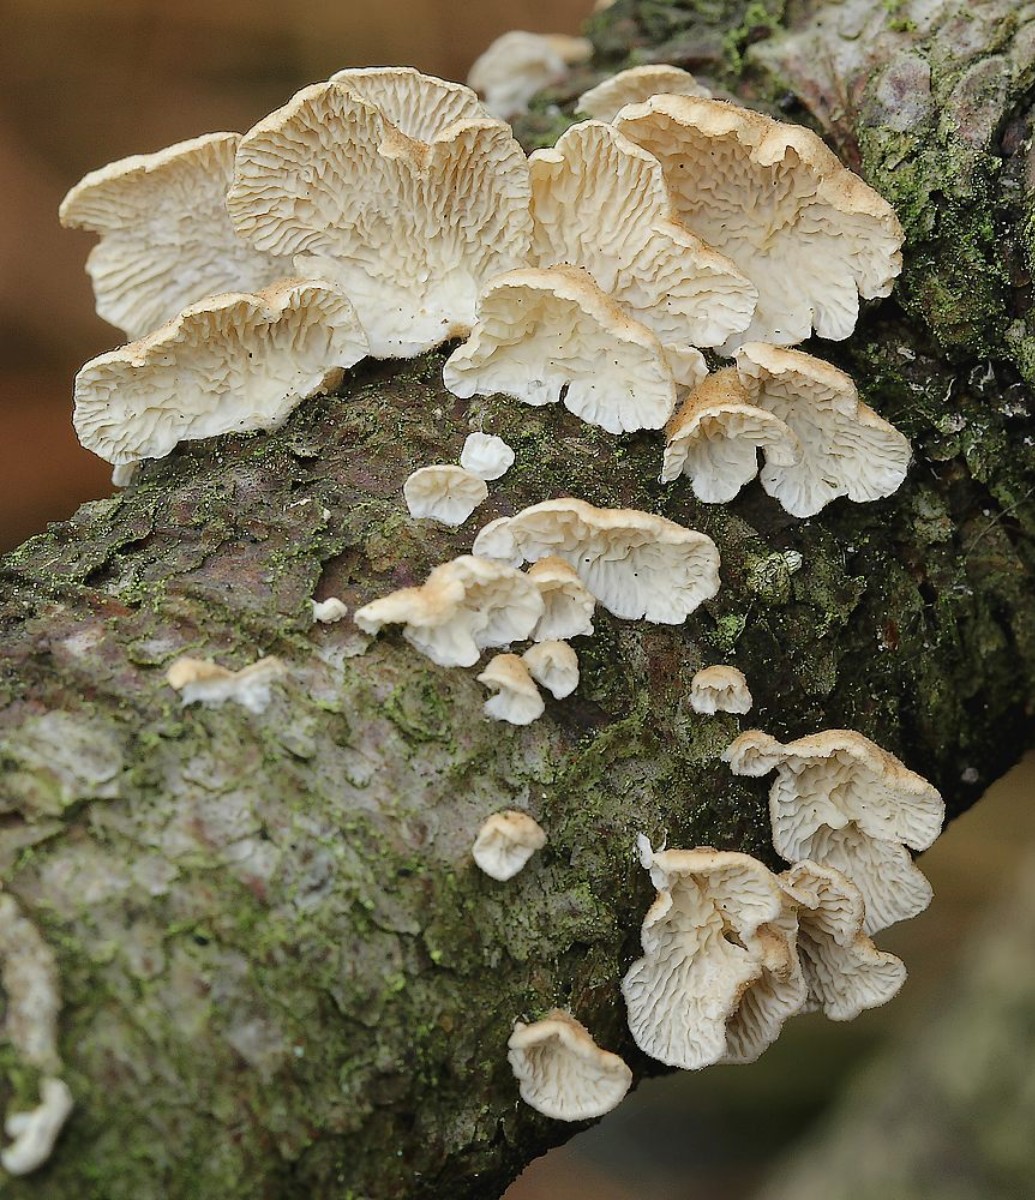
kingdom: Fungi
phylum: Basidiomycota
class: Agaricomycetes
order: Amylocorticiales
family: Amylocorticiaceae
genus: Plicaturopsis
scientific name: Plicaturopsis crispa
